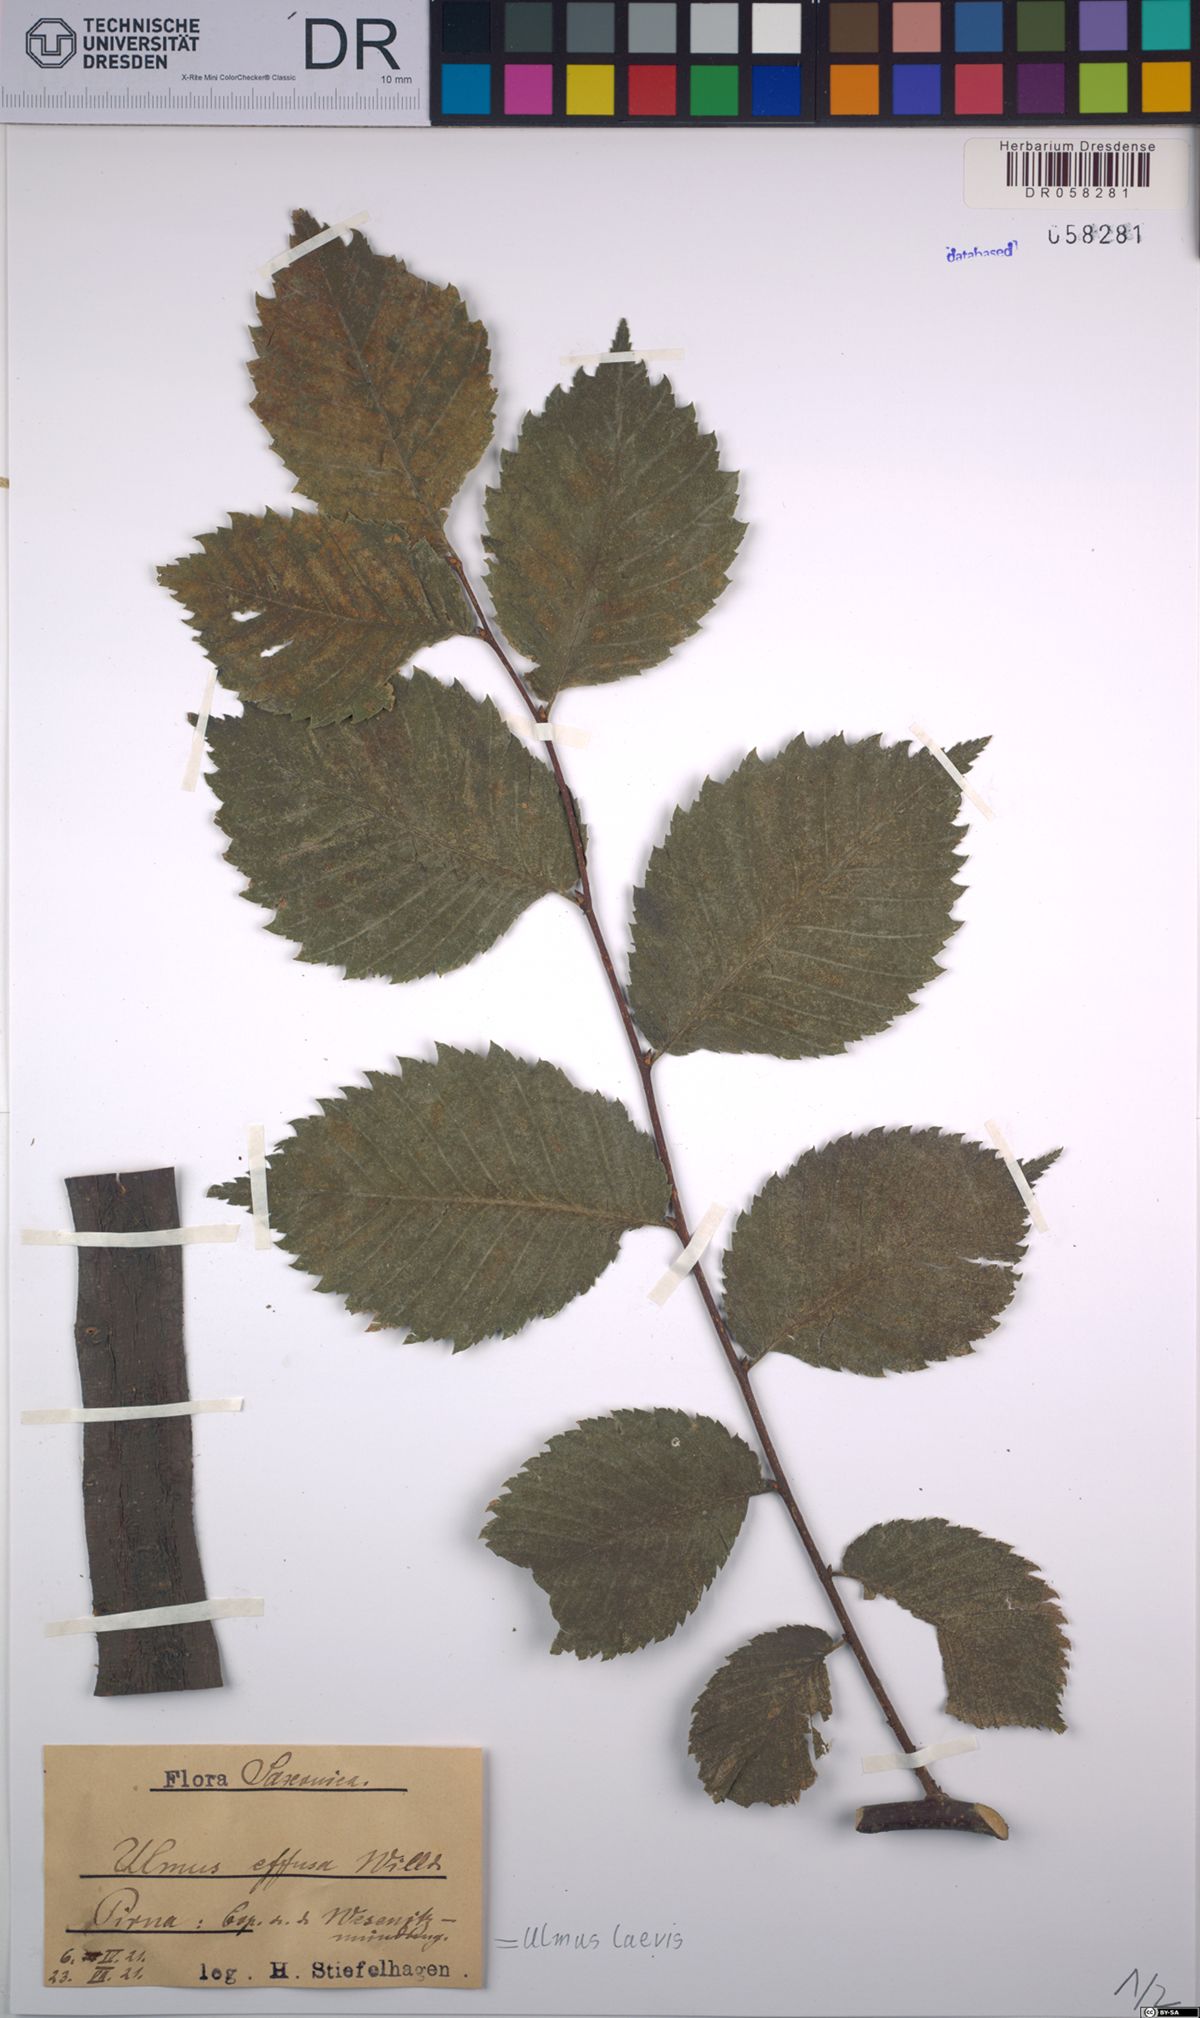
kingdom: Plantae
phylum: Tracheophyta
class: Magnoliopsida
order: Rosales
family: Ulmaceae
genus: Ulmus
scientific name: Ulmus laevis
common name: European white-elm
